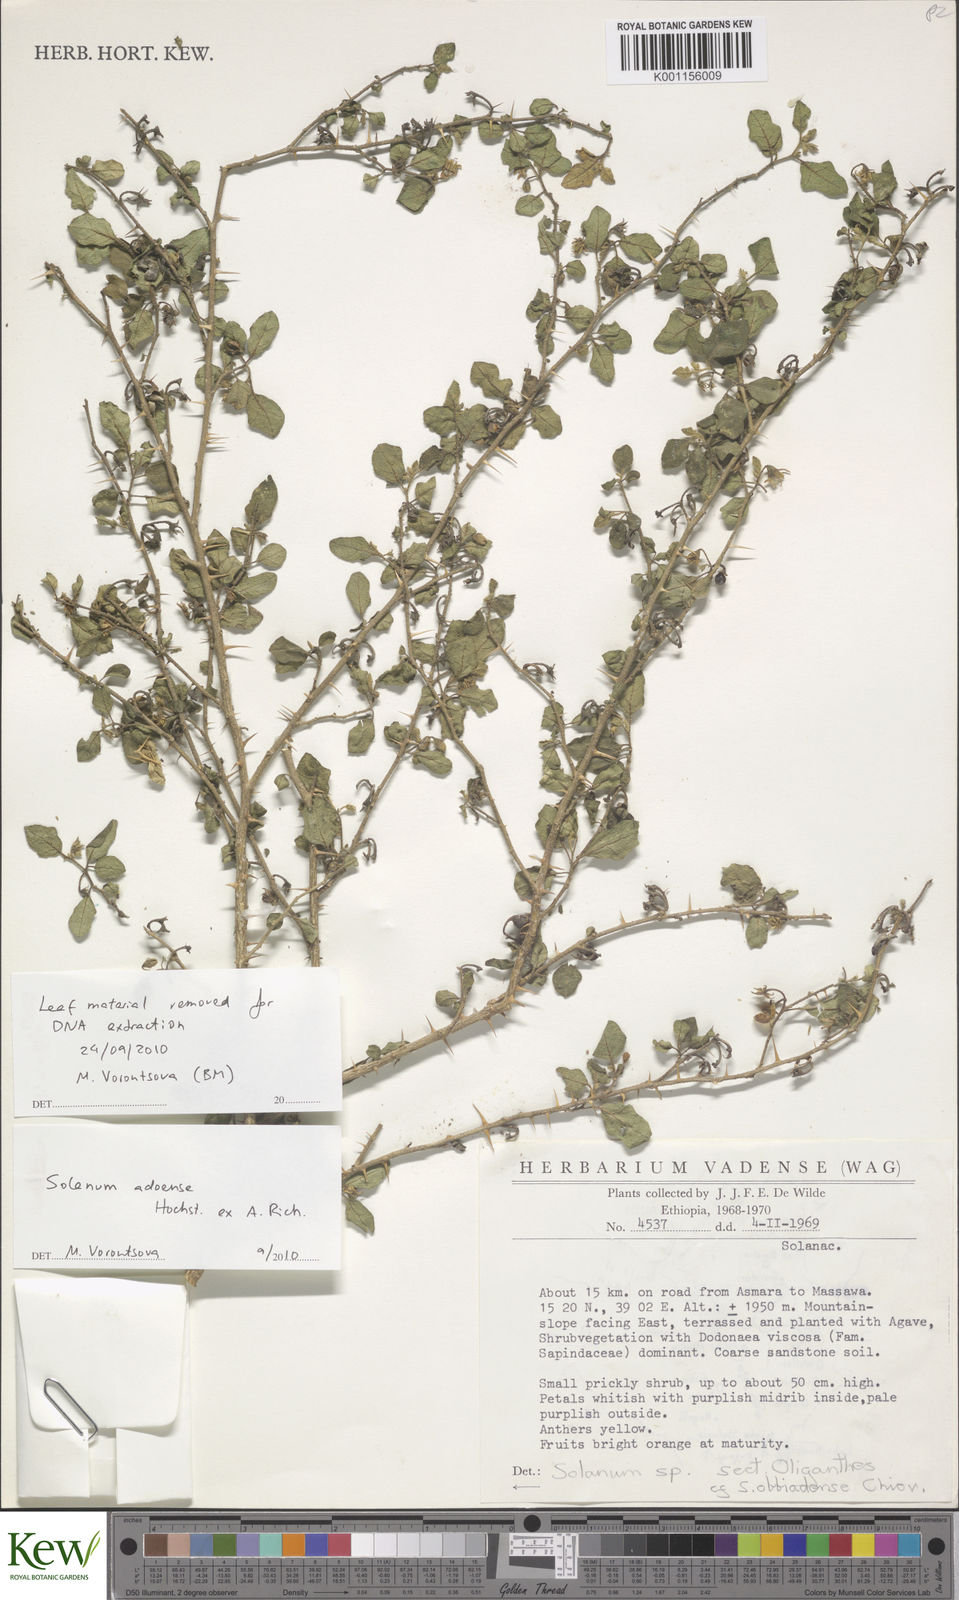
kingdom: Plantae
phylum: Tracheophyta
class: Magnoliopsida
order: Solanales
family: Solanaceae
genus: Solanum
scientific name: Solanum adoense
